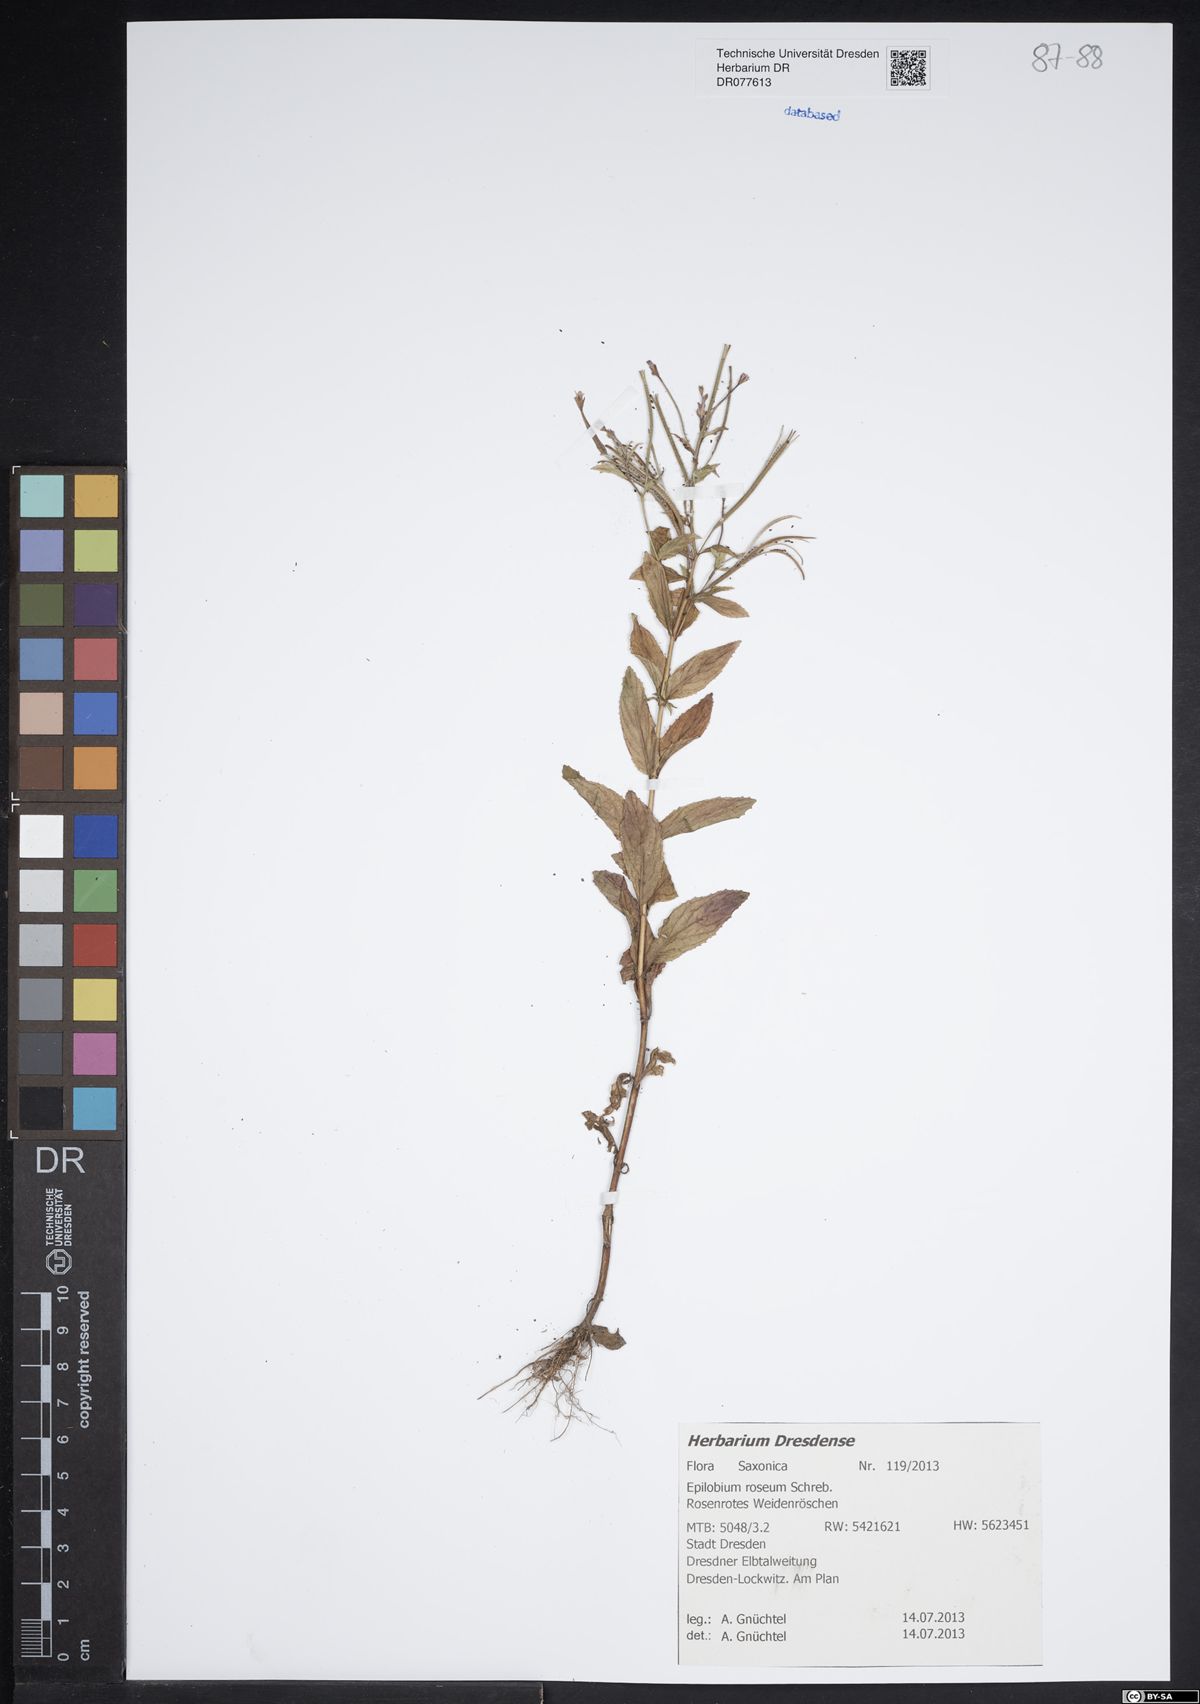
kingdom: Plantae
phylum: Tracheophyta
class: Magnoliopsida
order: Myrtales
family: Onagraceae
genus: Epilobium
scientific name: Epilobium roseum
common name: Pale willowherb
